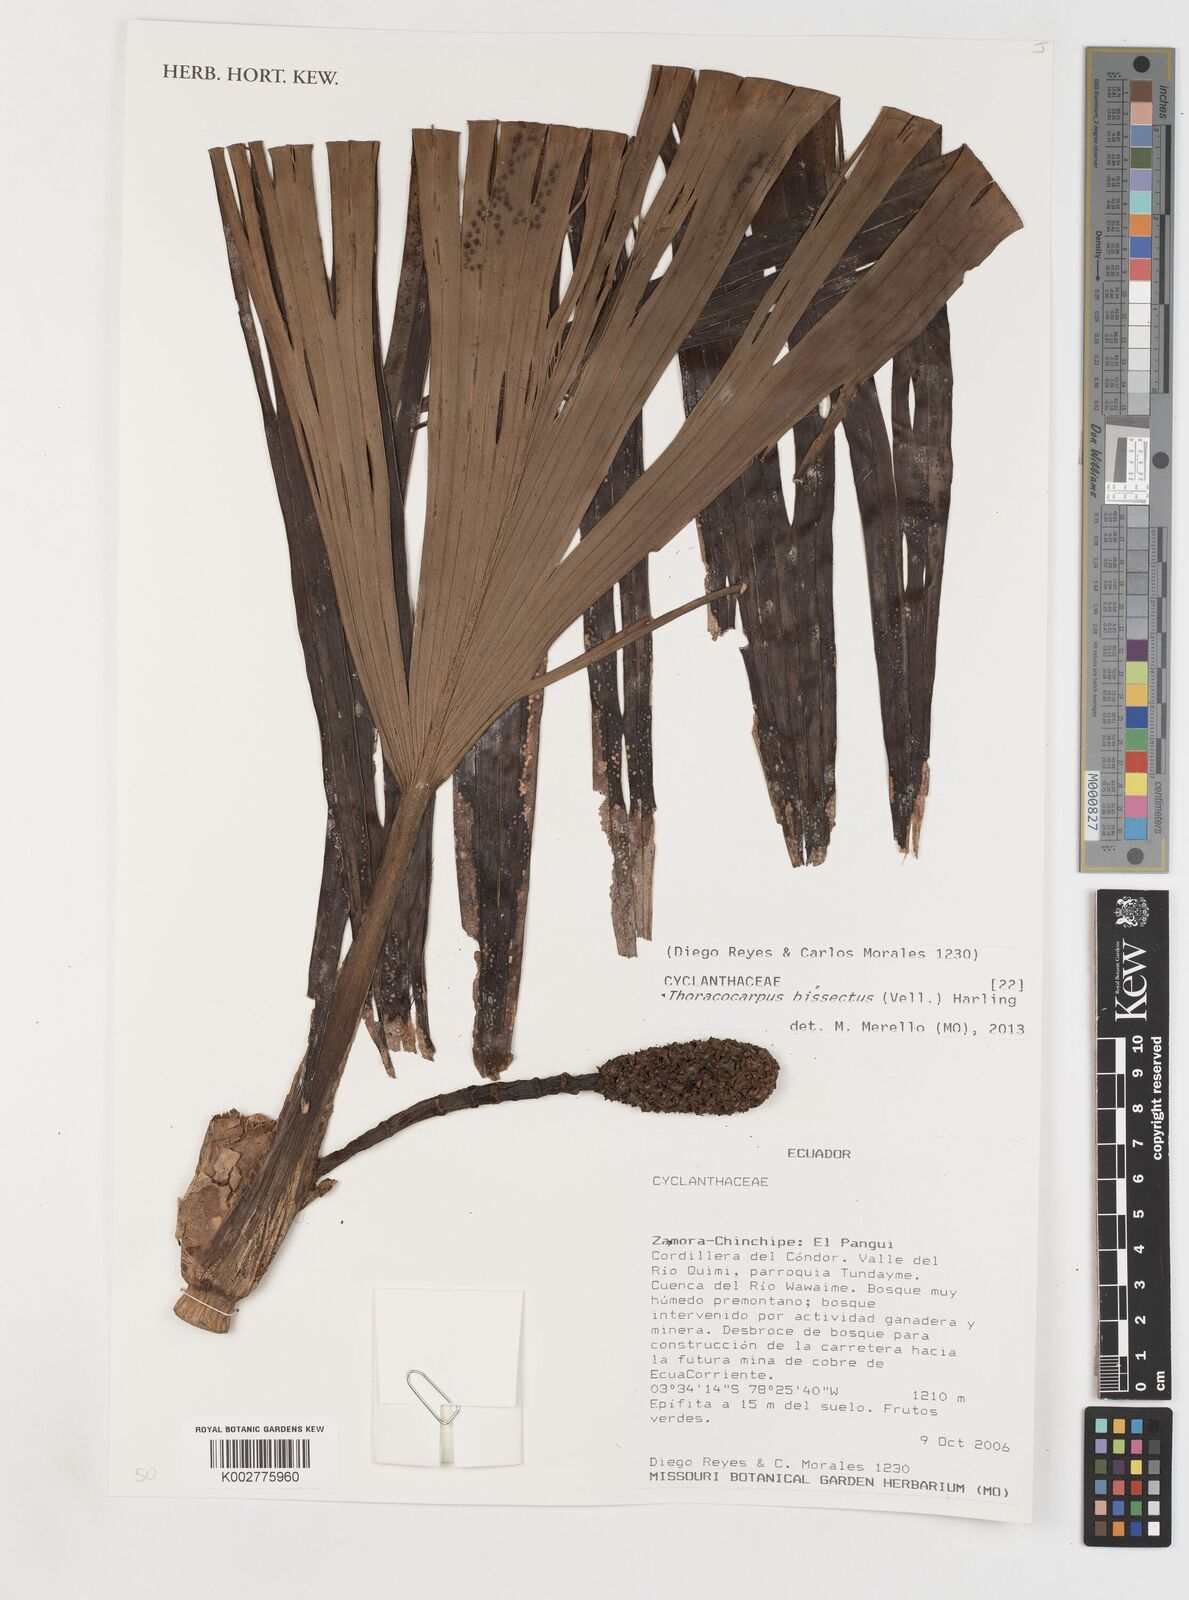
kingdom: Plantae
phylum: Tracheophyta
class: Liliopsida
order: Pandanales
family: Cyclanthaceae
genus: Thoracocarpus
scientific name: Thoracocarpus bissectus
